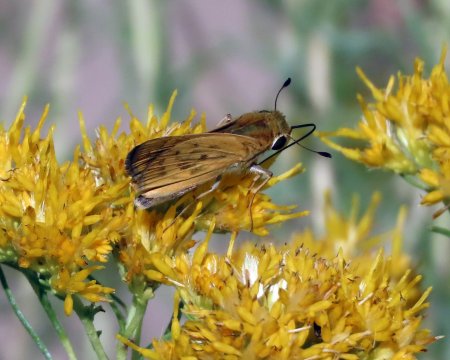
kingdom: Animalia
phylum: Arthropoda
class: Insecta
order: Lepidoptera
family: Hesperiidae
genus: Hylephila
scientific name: Hylephila phyleus
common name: Fiery Skipper
